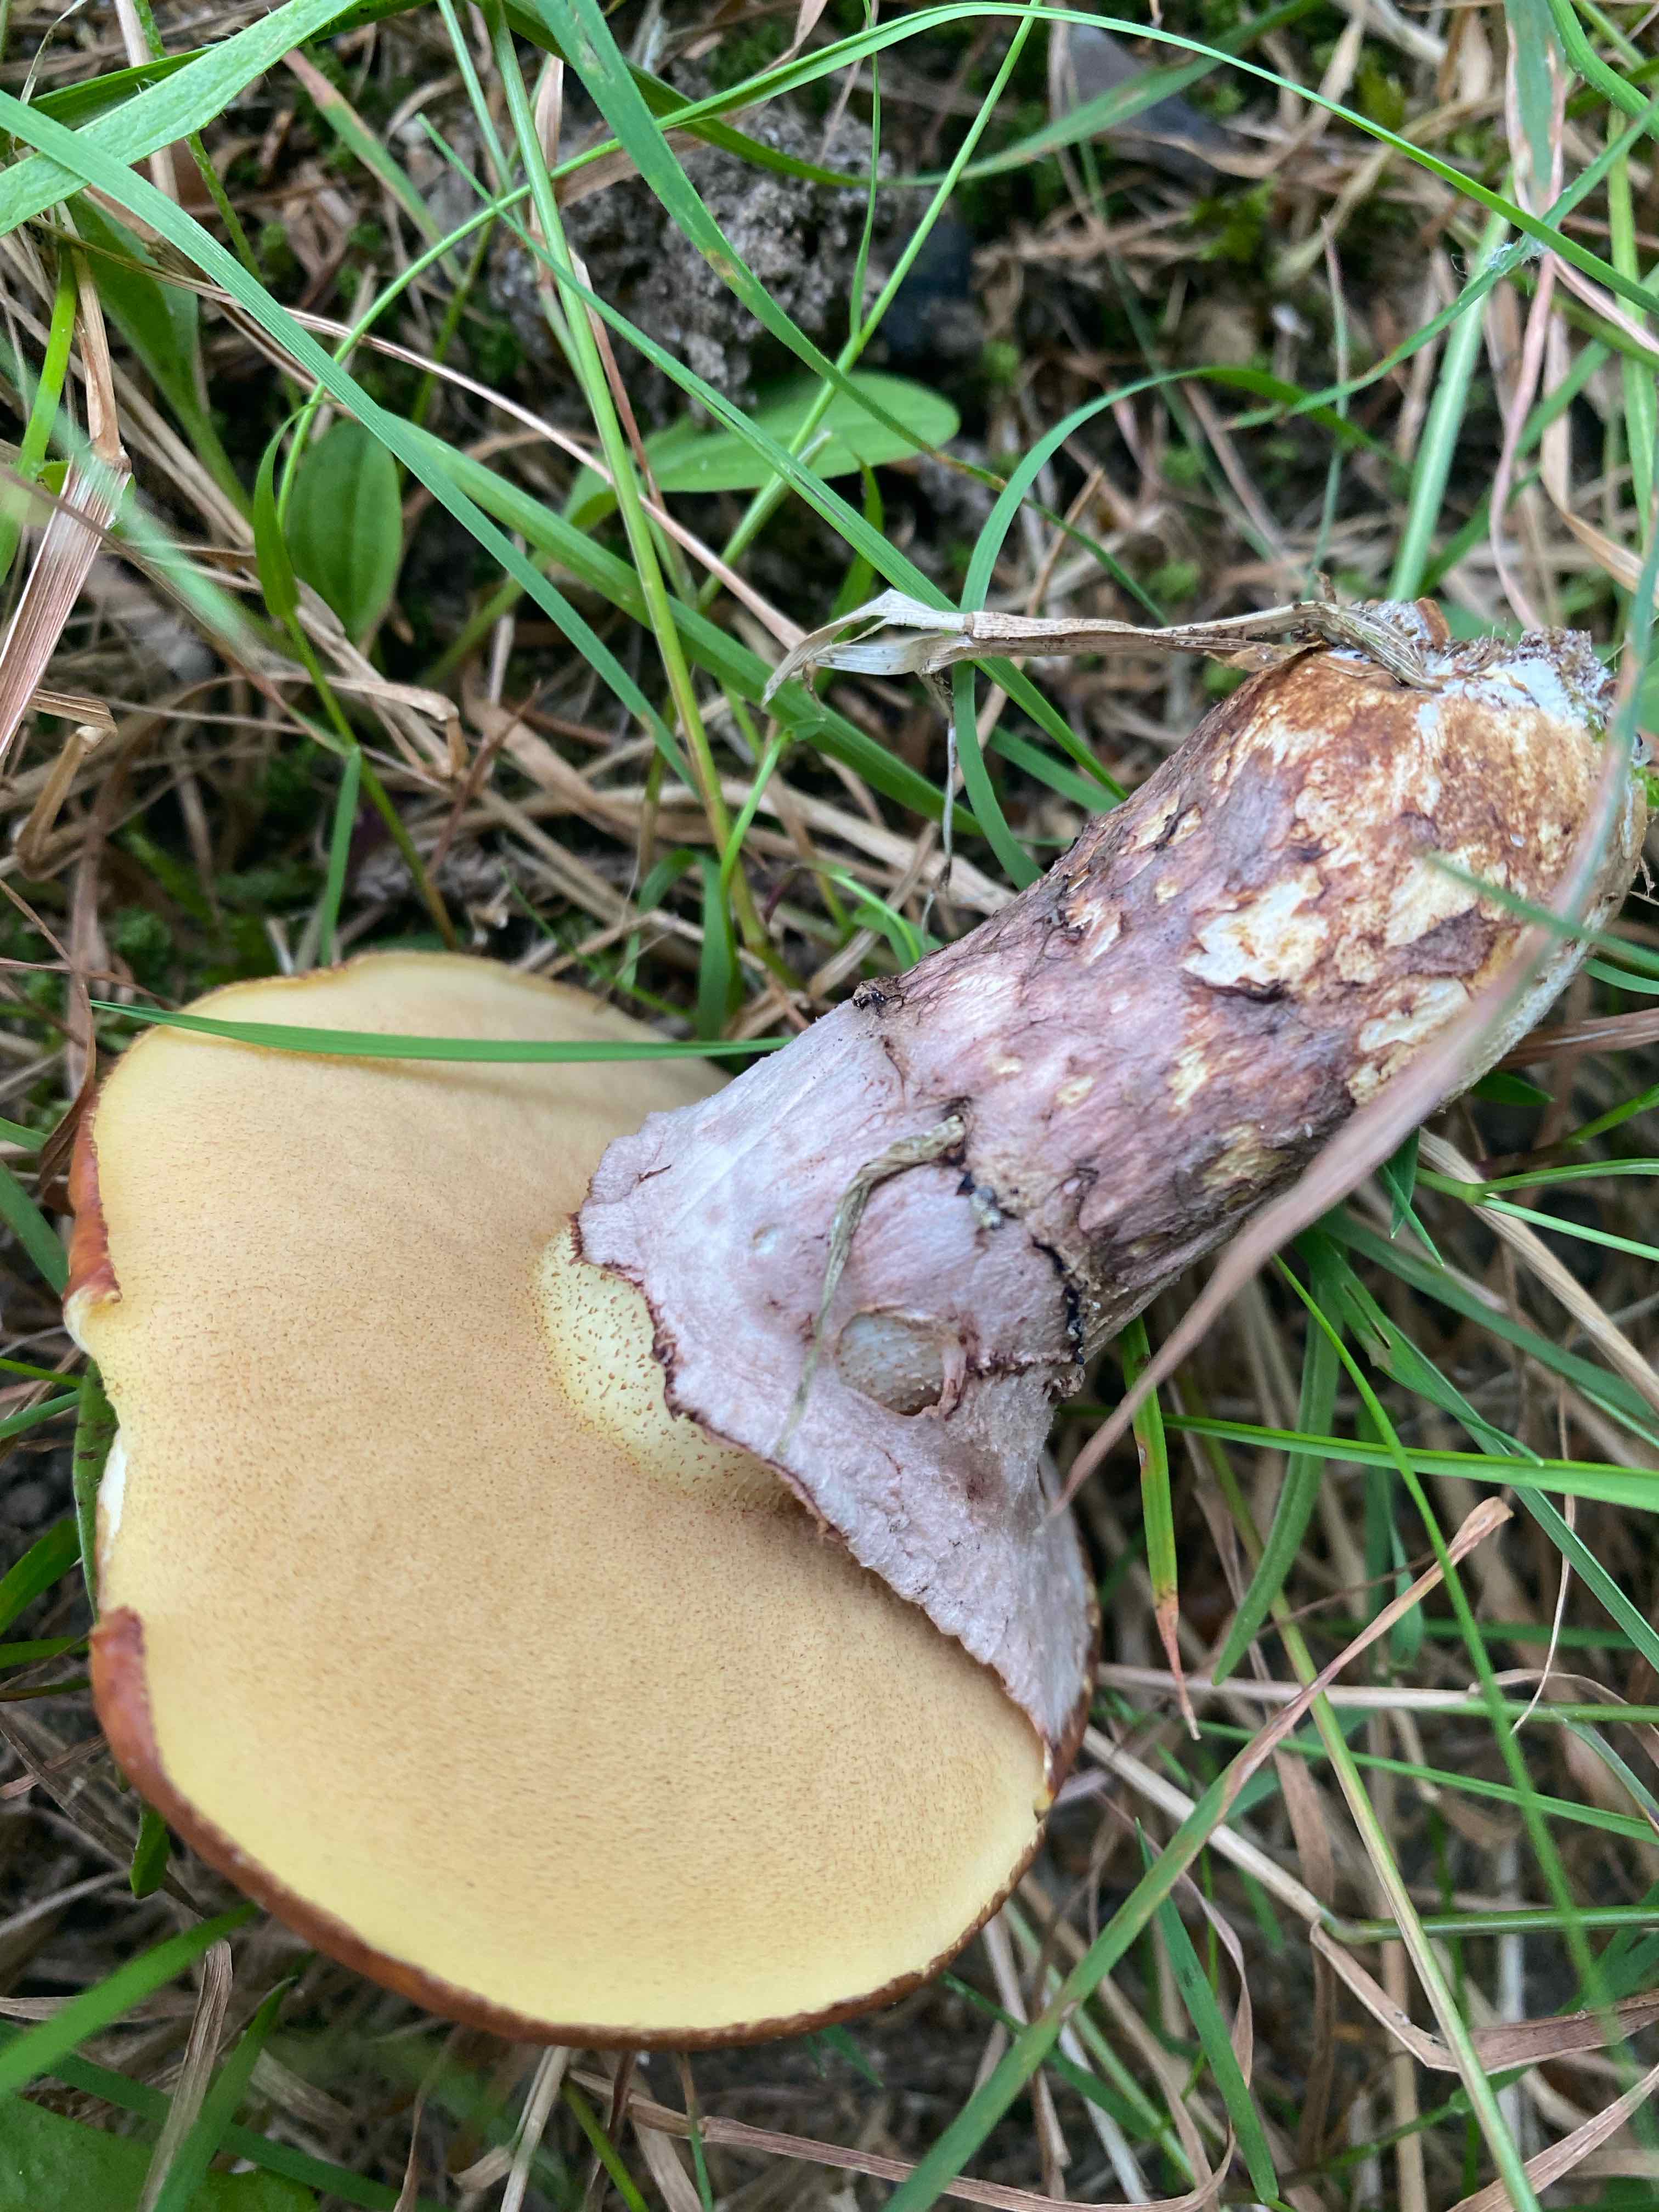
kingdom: Fungi
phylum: Basidiomycota
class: Agaricomycetes
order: Boletales
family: Suillaceae
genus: Suillus
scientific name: Suillus luteus
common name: brungul slimrørhat
